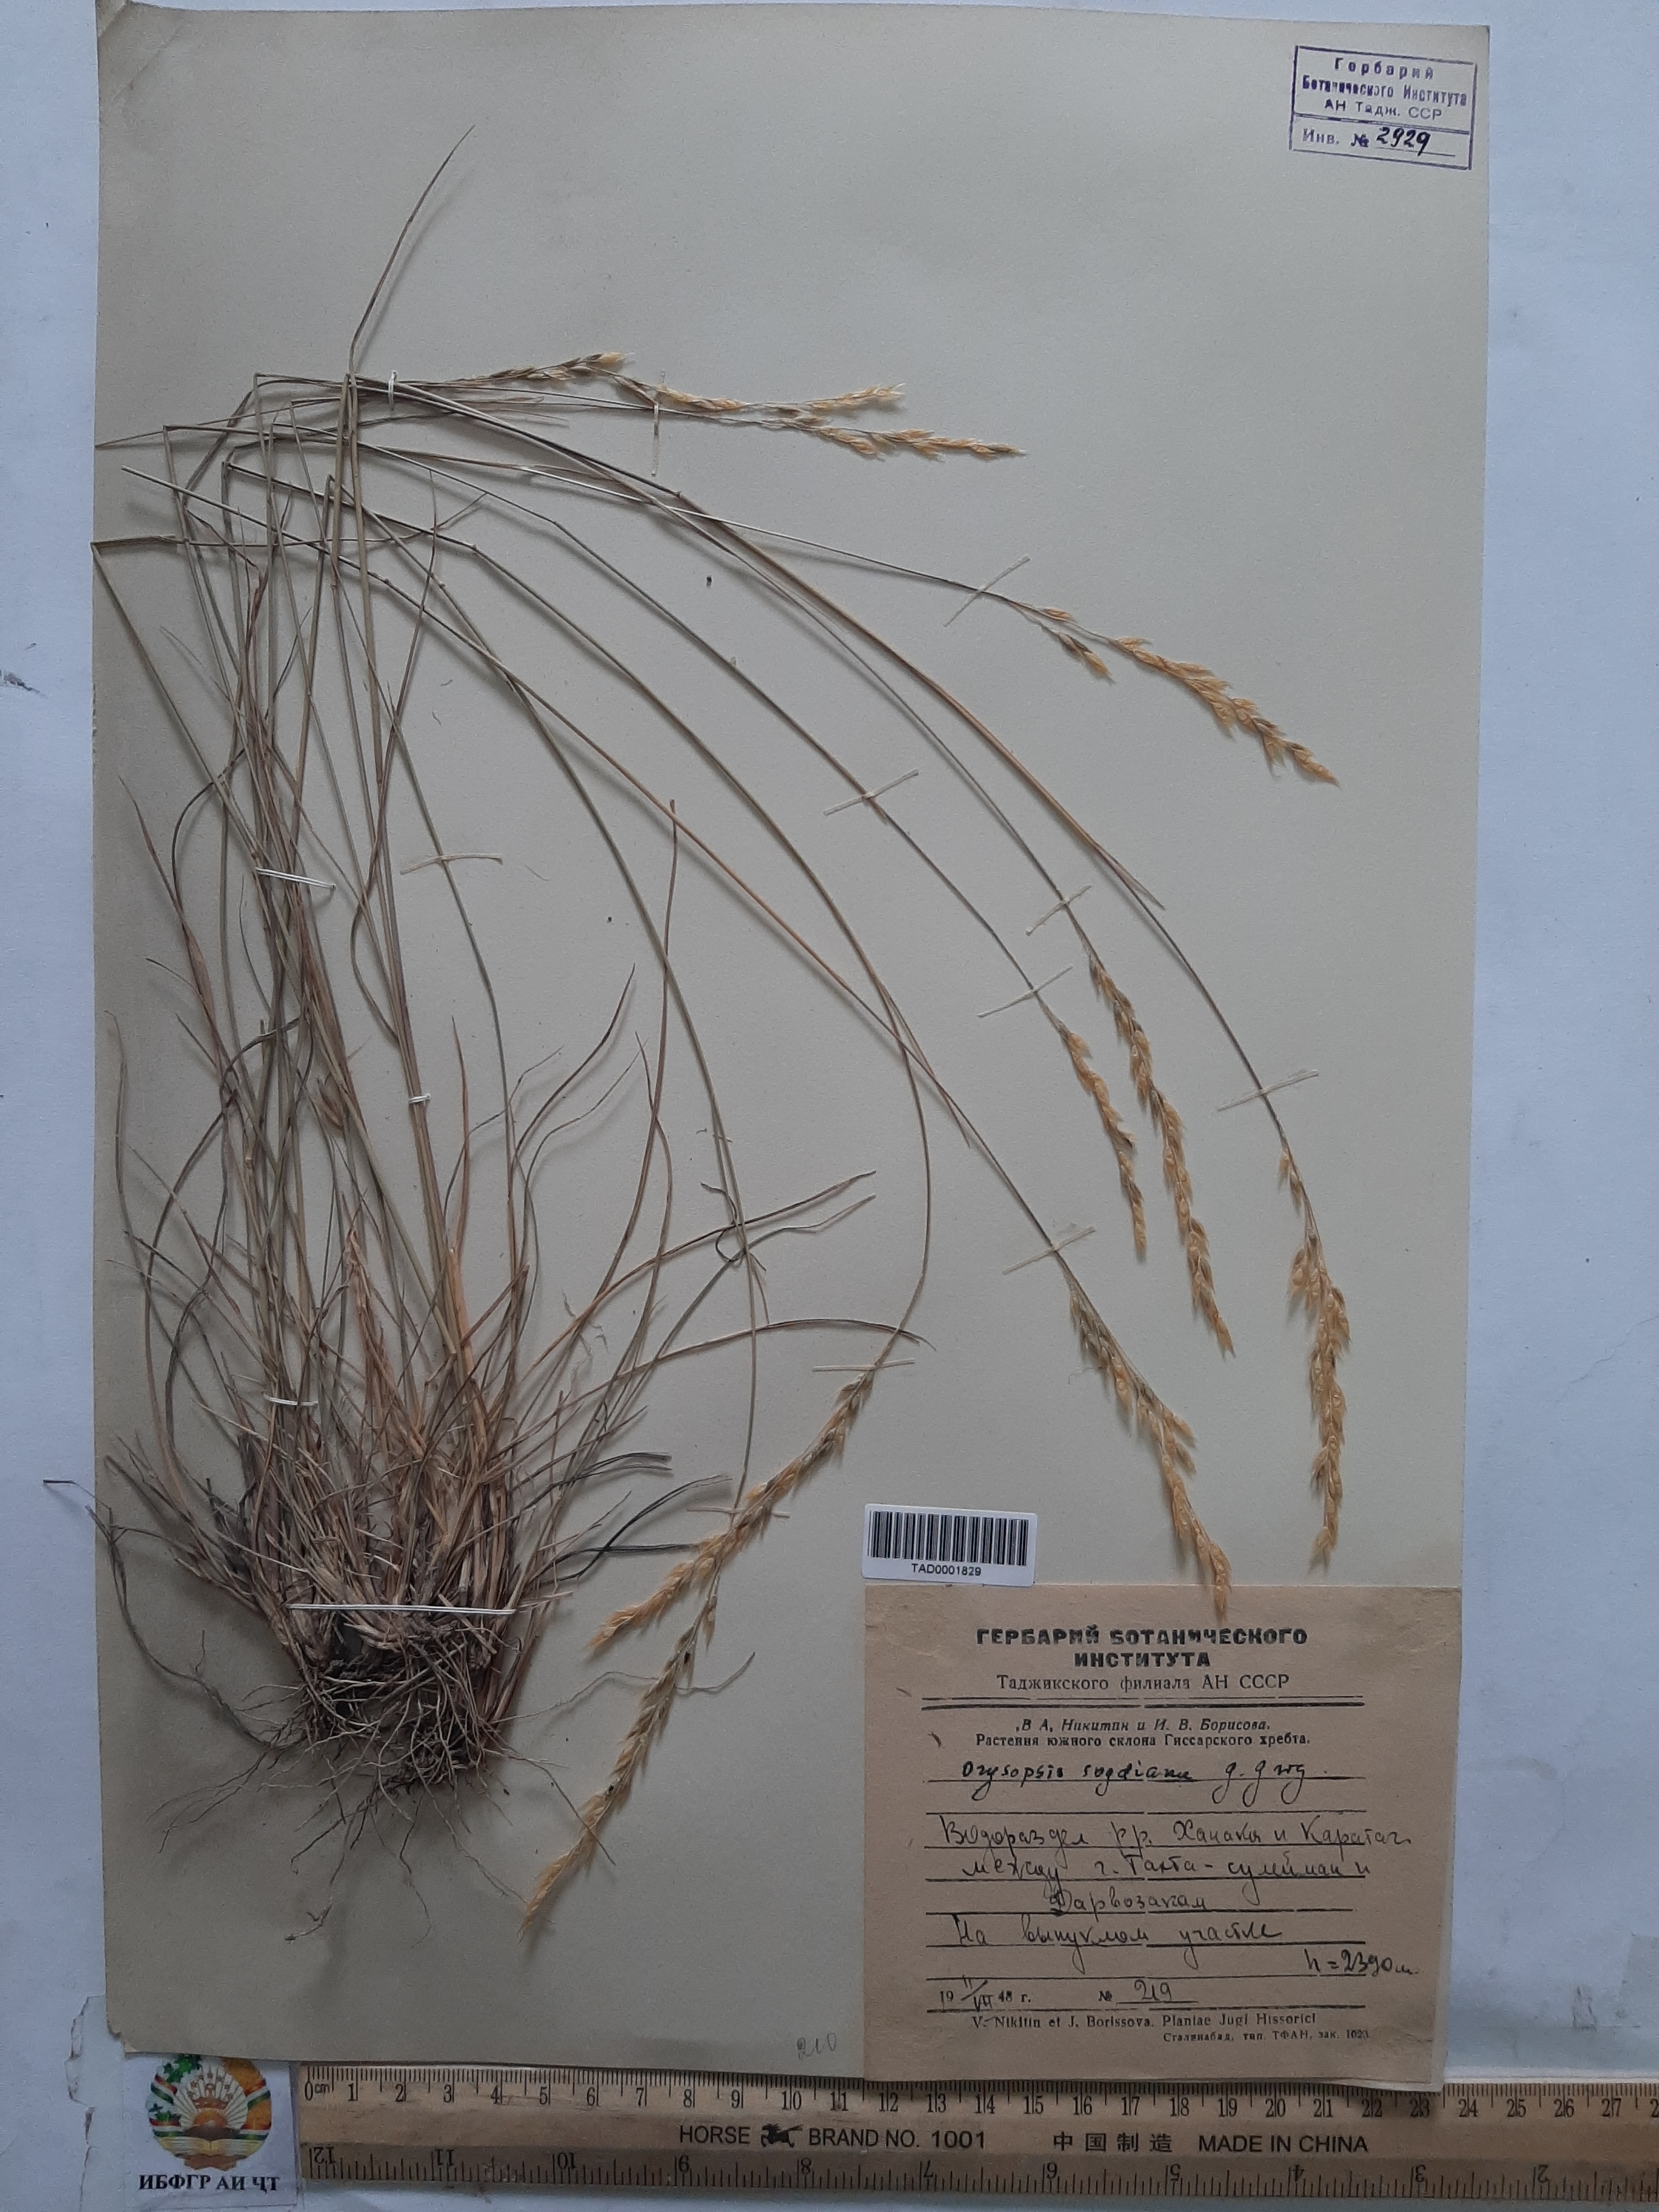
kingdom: Plantae
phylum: Tracheophyta
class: Liliopsida
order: Poales
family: Poaceae
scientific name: Poaceae
